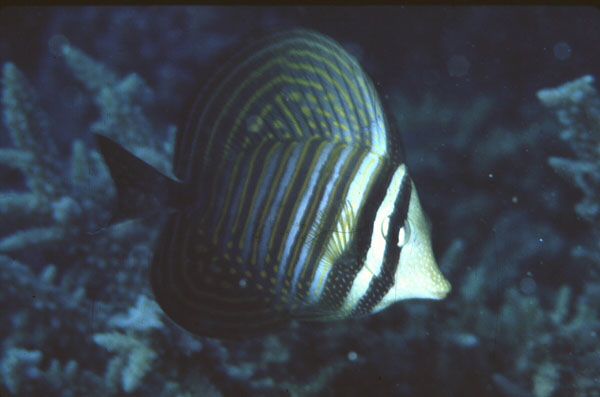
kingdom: Animalia
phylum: Chordata
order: Perciformes
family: Acanthuridae
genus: Zebrasoma
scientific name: Zebrasoma desjardinii
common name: Desjardin's sailfin tang
